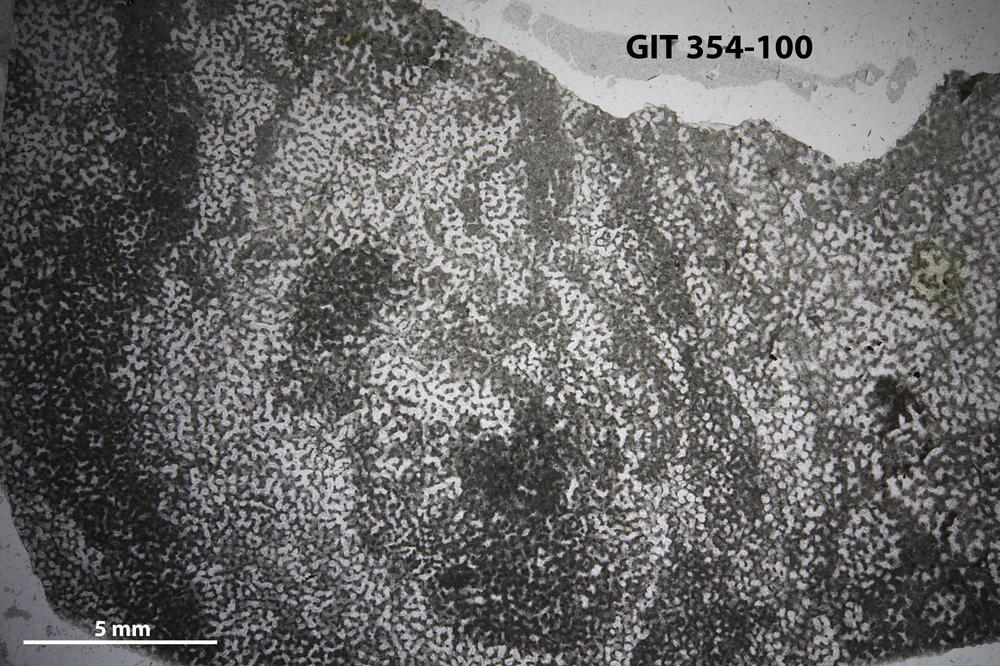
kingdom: Animalia
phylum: Porifera
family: Clathrodictyidae
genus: Clathrodictyon
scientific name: Clathrodictyon gregale
